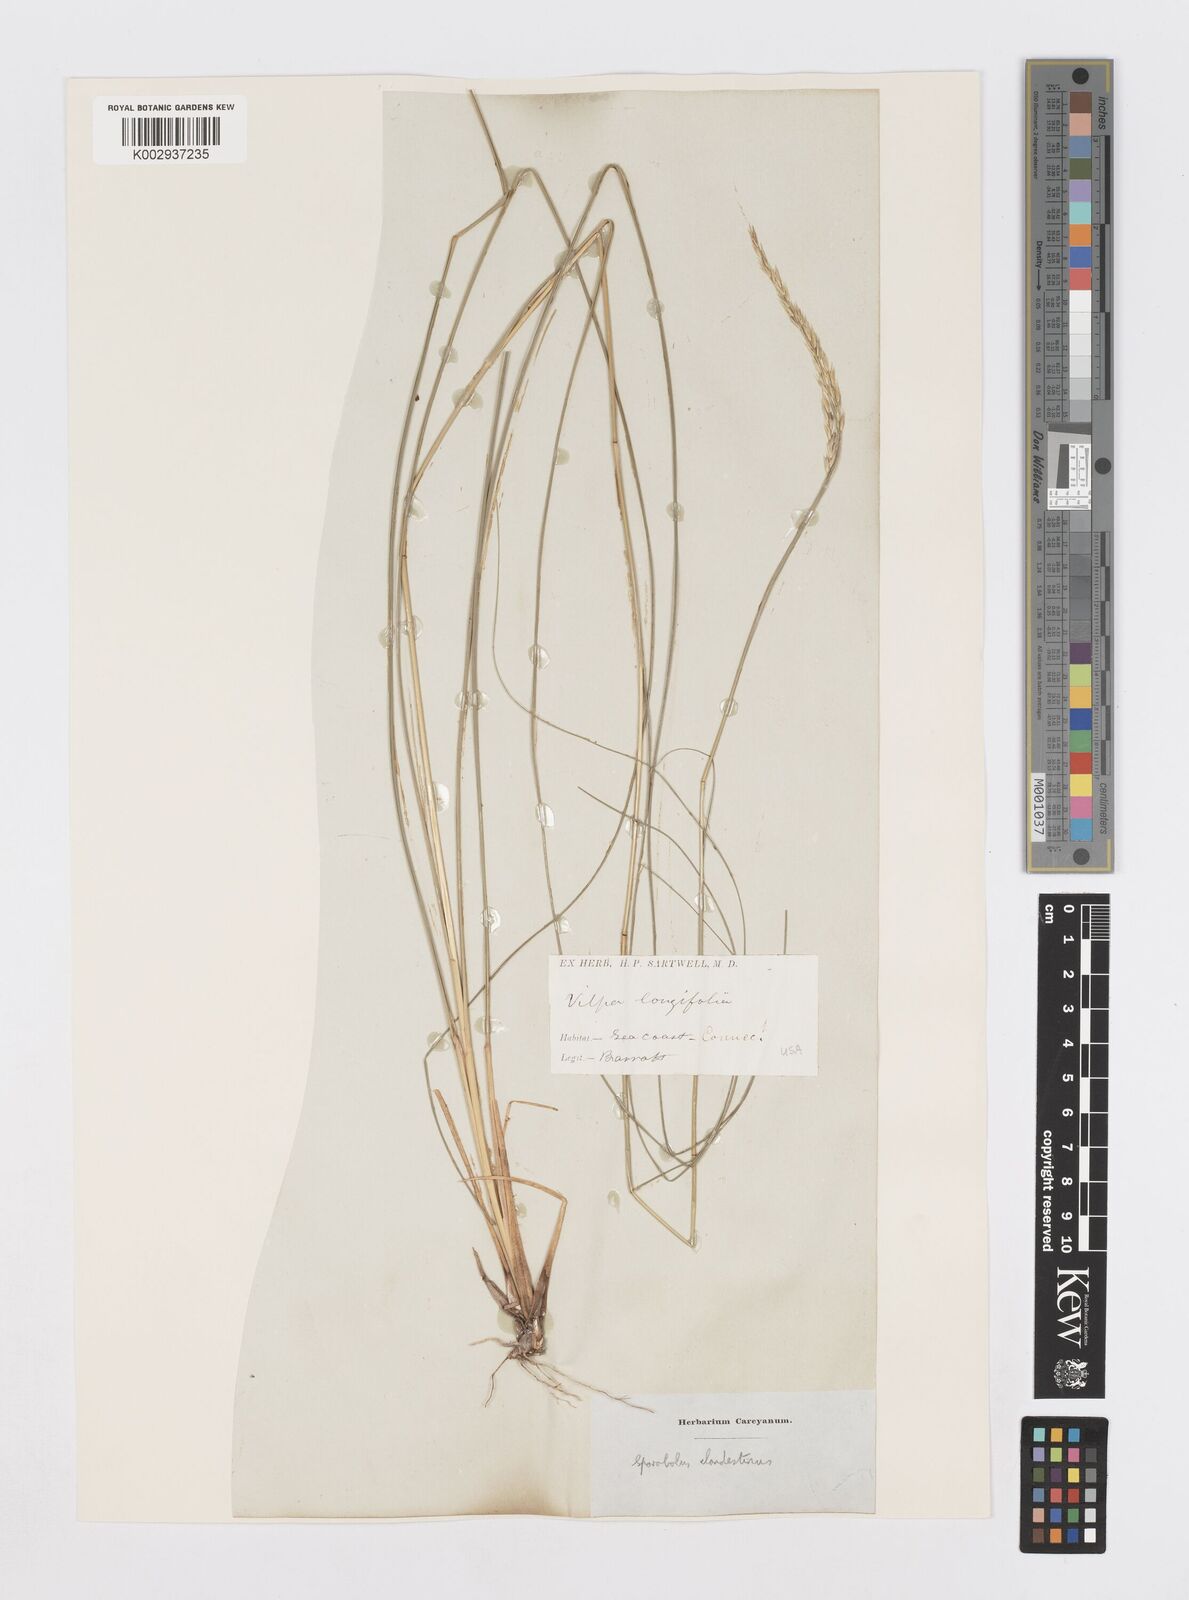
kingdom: Plantae
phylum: Tracheophyta
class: Liliopsida
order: Poales
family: Poaceae
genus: Sporobolus
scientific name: Sporobolus clandestinus
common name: Hidden dropseed
